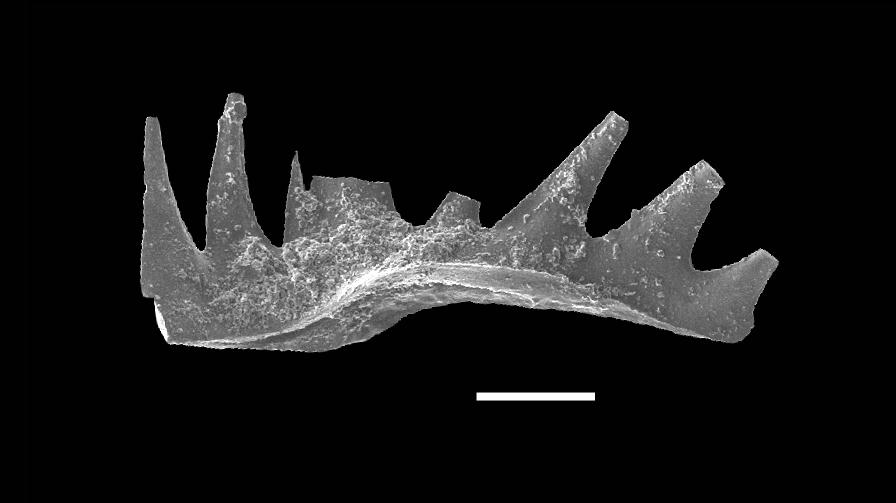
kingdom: Animalia
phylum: Chordata
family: Hibbardellidae
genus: Oulodus
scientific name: Oulodus
